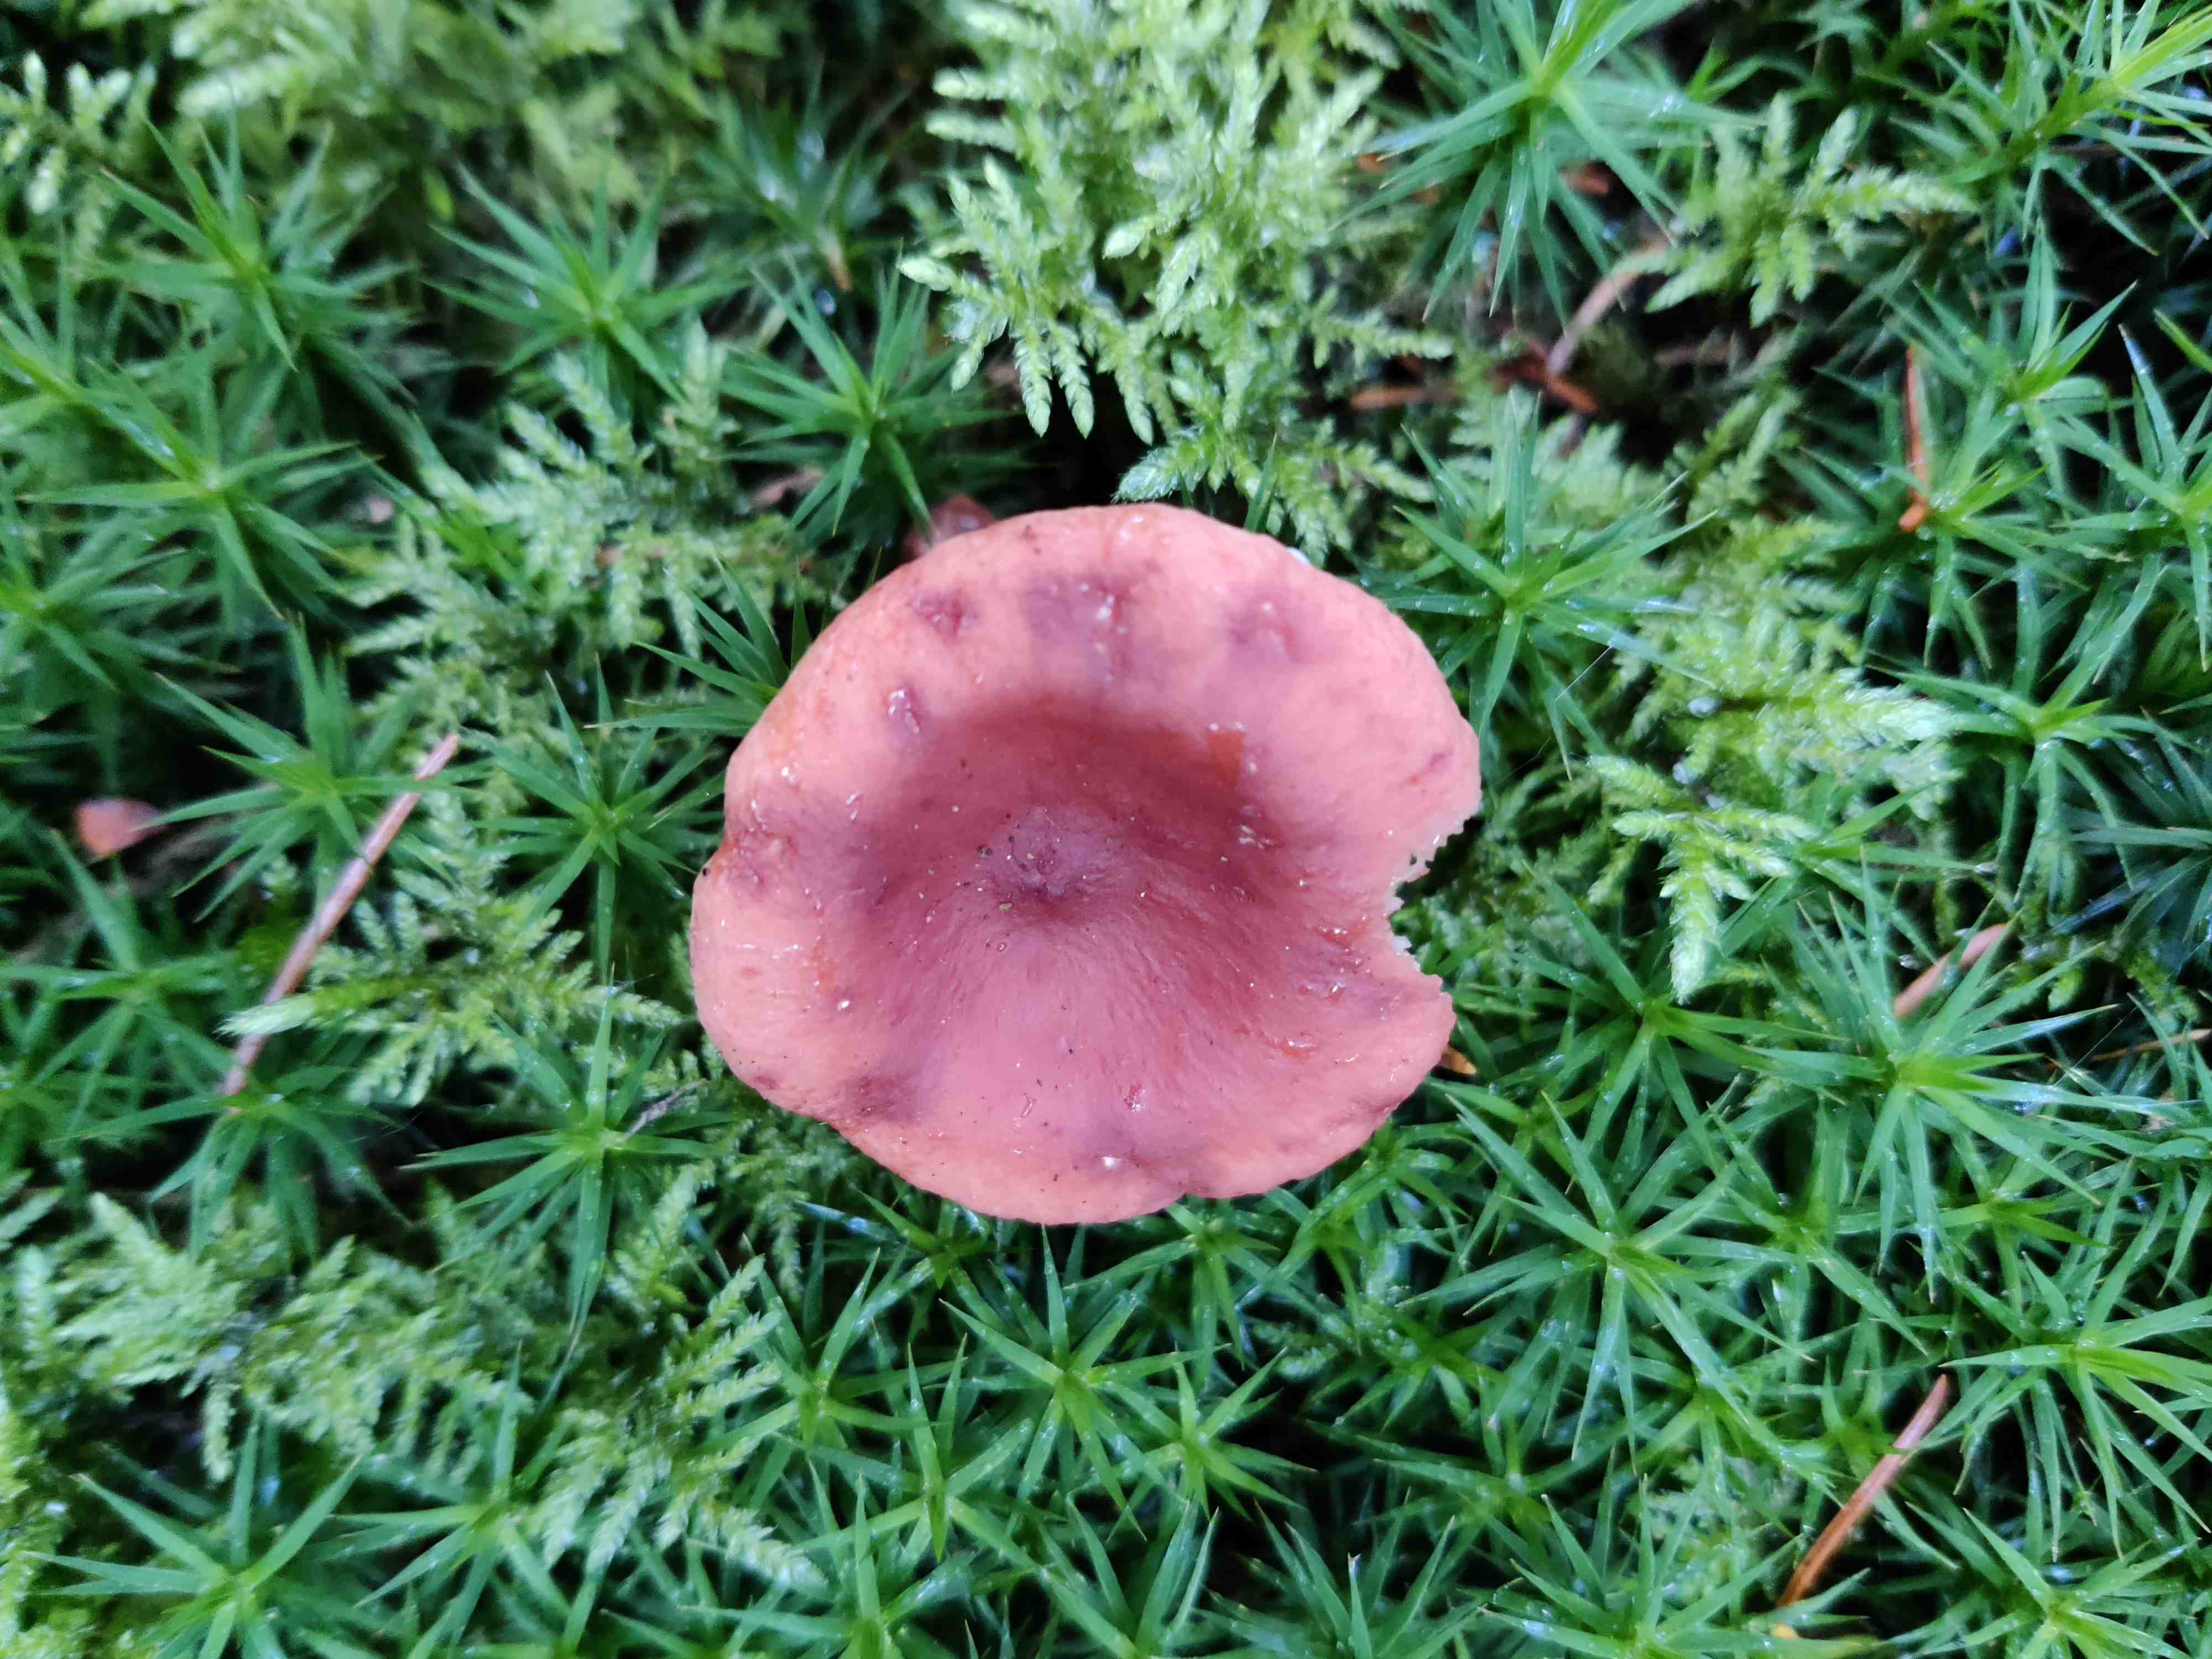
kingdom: Fungi
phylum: Basidiomycota
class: Agaricomycetes
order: Russulales
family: Russulaceae
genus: Lactarius
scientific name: Lactarius rufus
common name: rødbrun mælkehat
